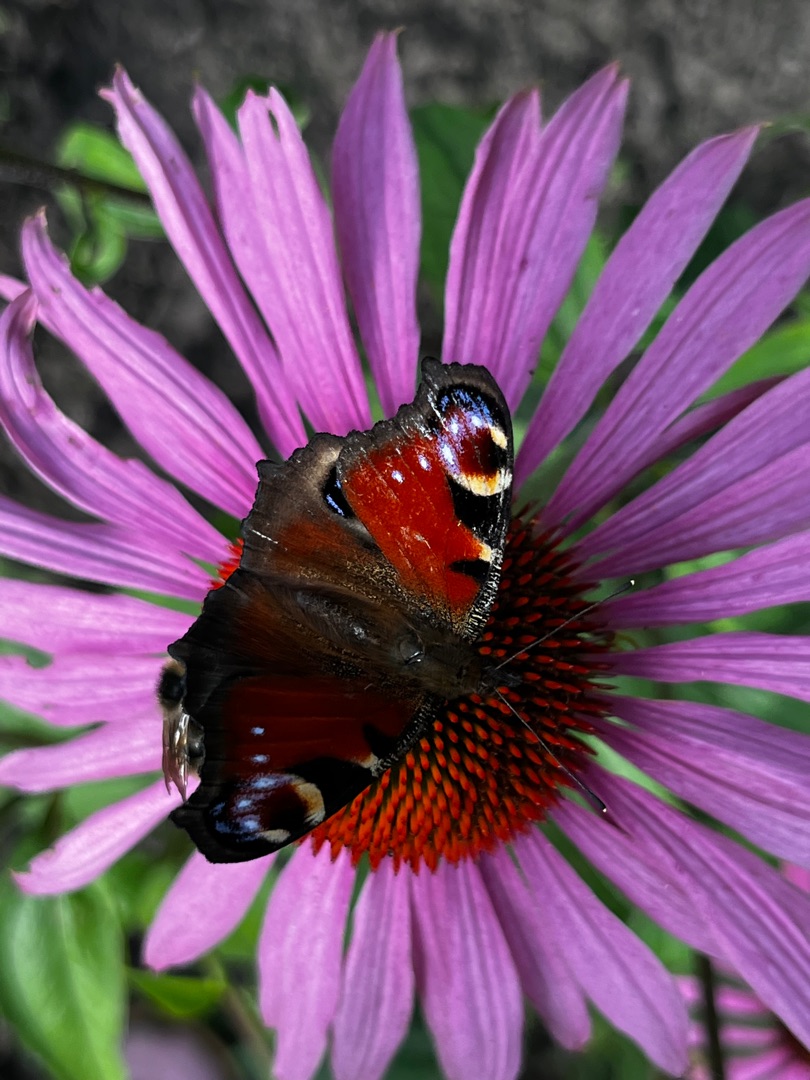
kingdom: Animalia
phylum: Arthropoda
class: Insecta
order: Lepidoptera
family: Nymphalidae
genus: Aglais
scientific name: Aglais io
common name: Dagpåfugleøje
